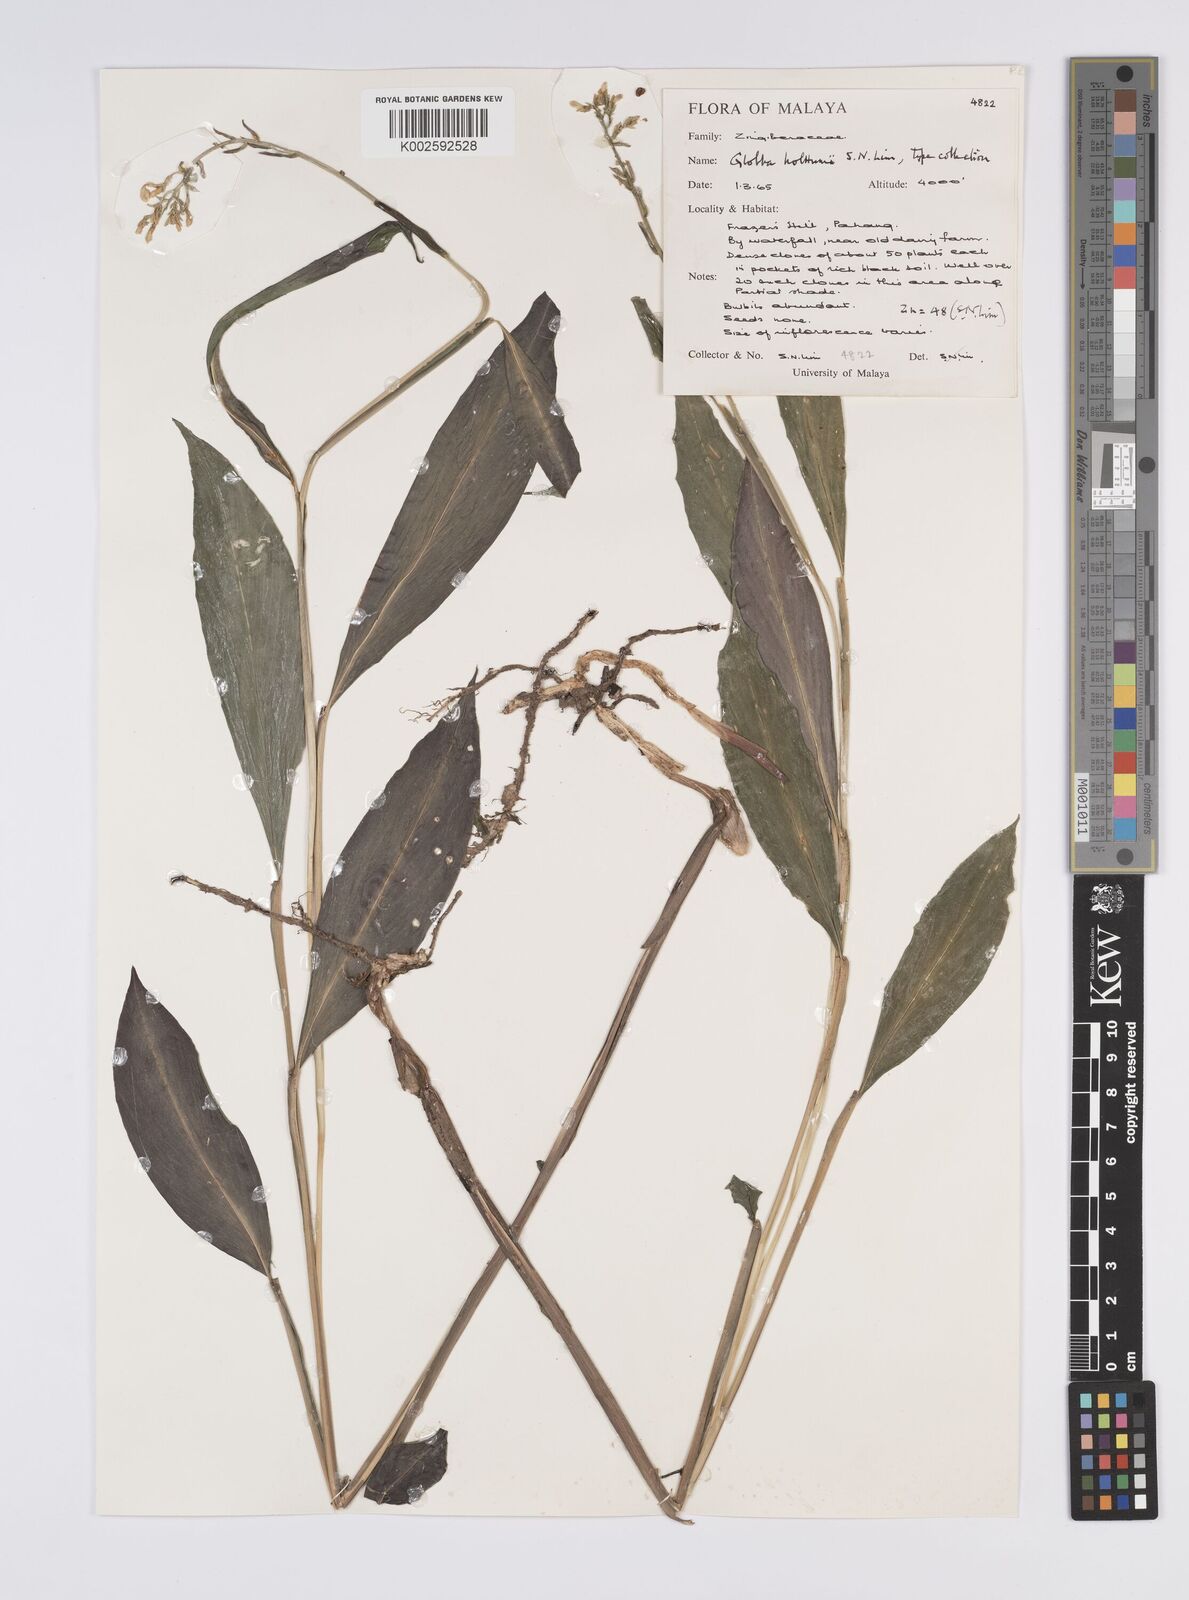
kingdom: Plantae
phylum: Tracheophyta
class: Liliopsida
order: Zingiberales
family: Zingiberaceae
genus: Globba
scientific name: Globba holttumii
